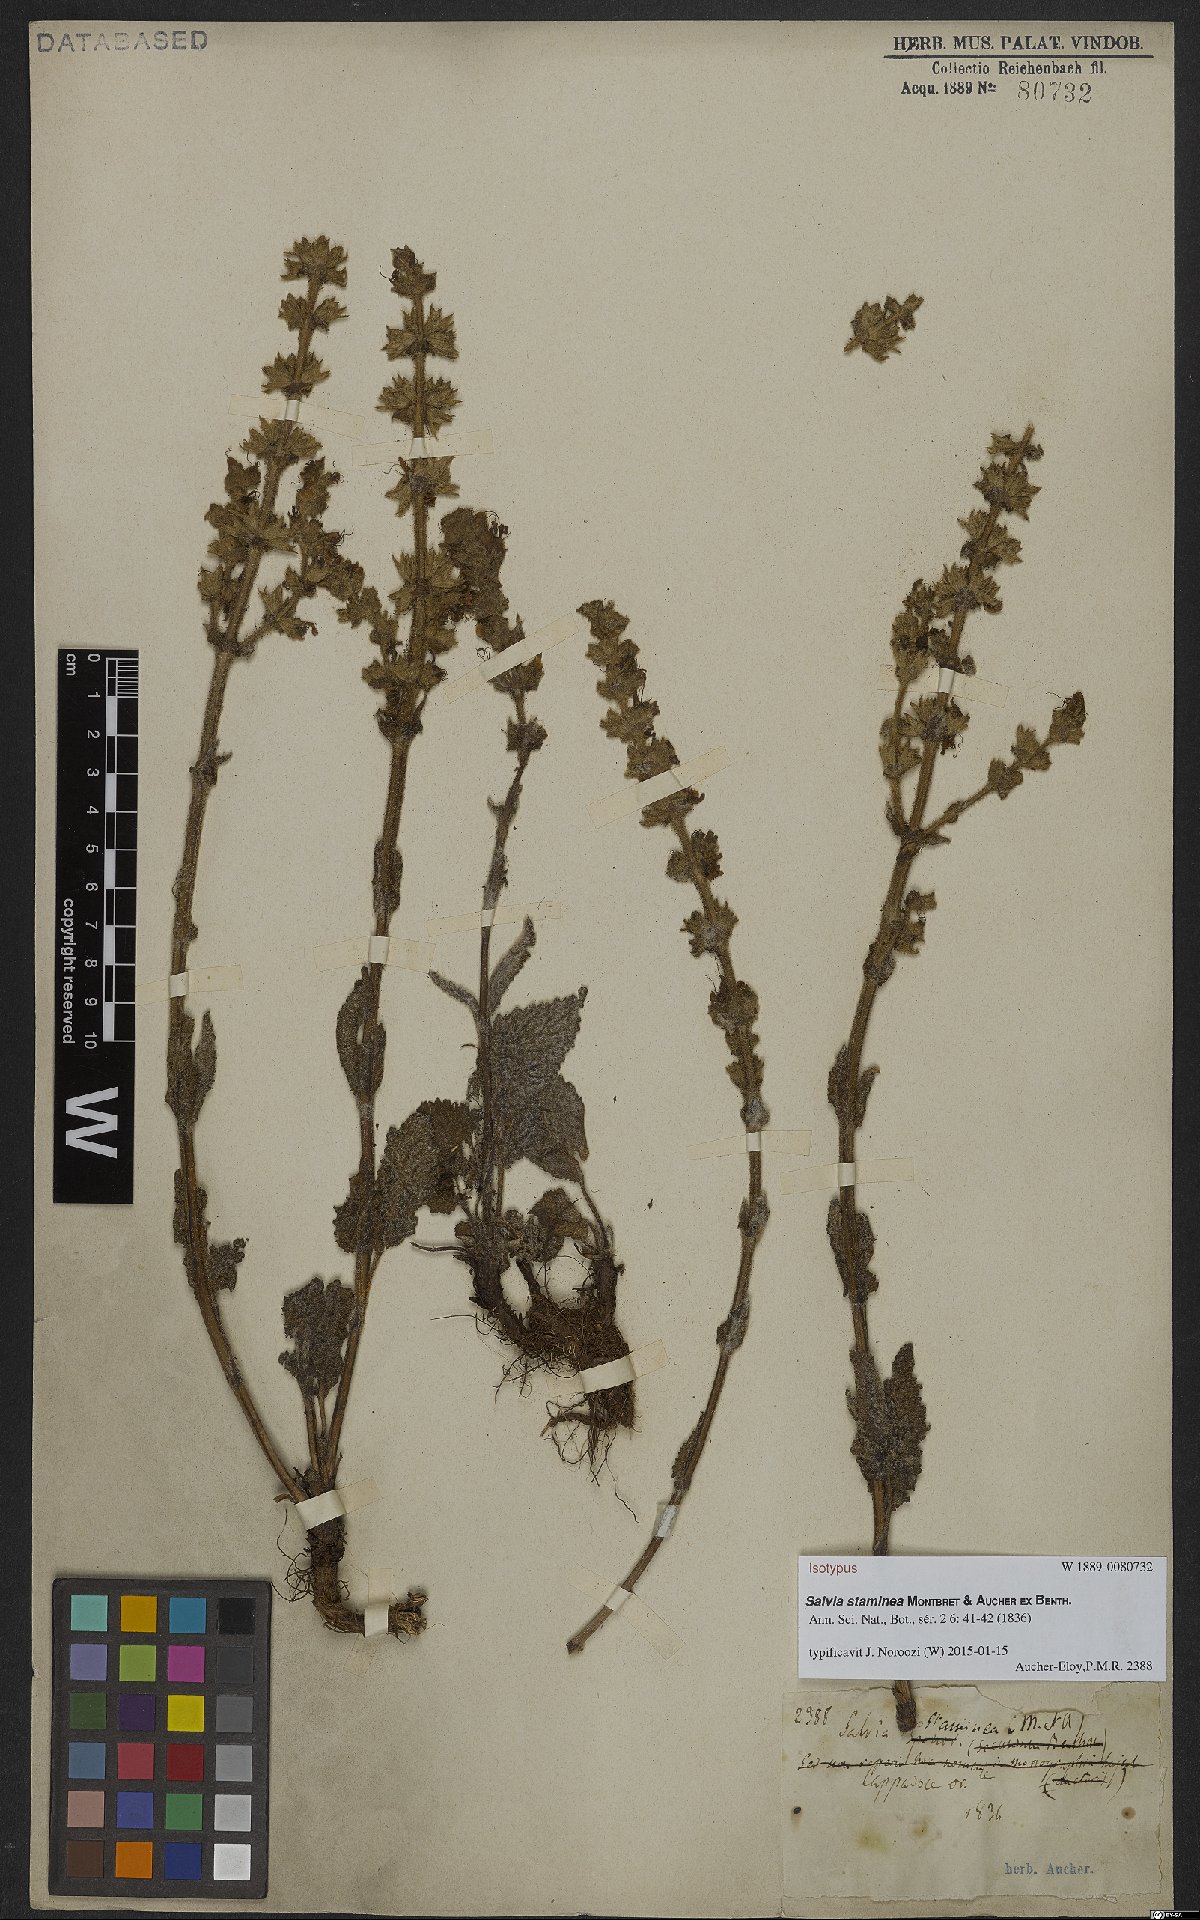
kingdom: Plantae
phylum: Tracheophyta
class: Magnoliopsida
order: Lamiales
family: Lamiaceae
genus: Salvia
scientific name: Salvia staminea
